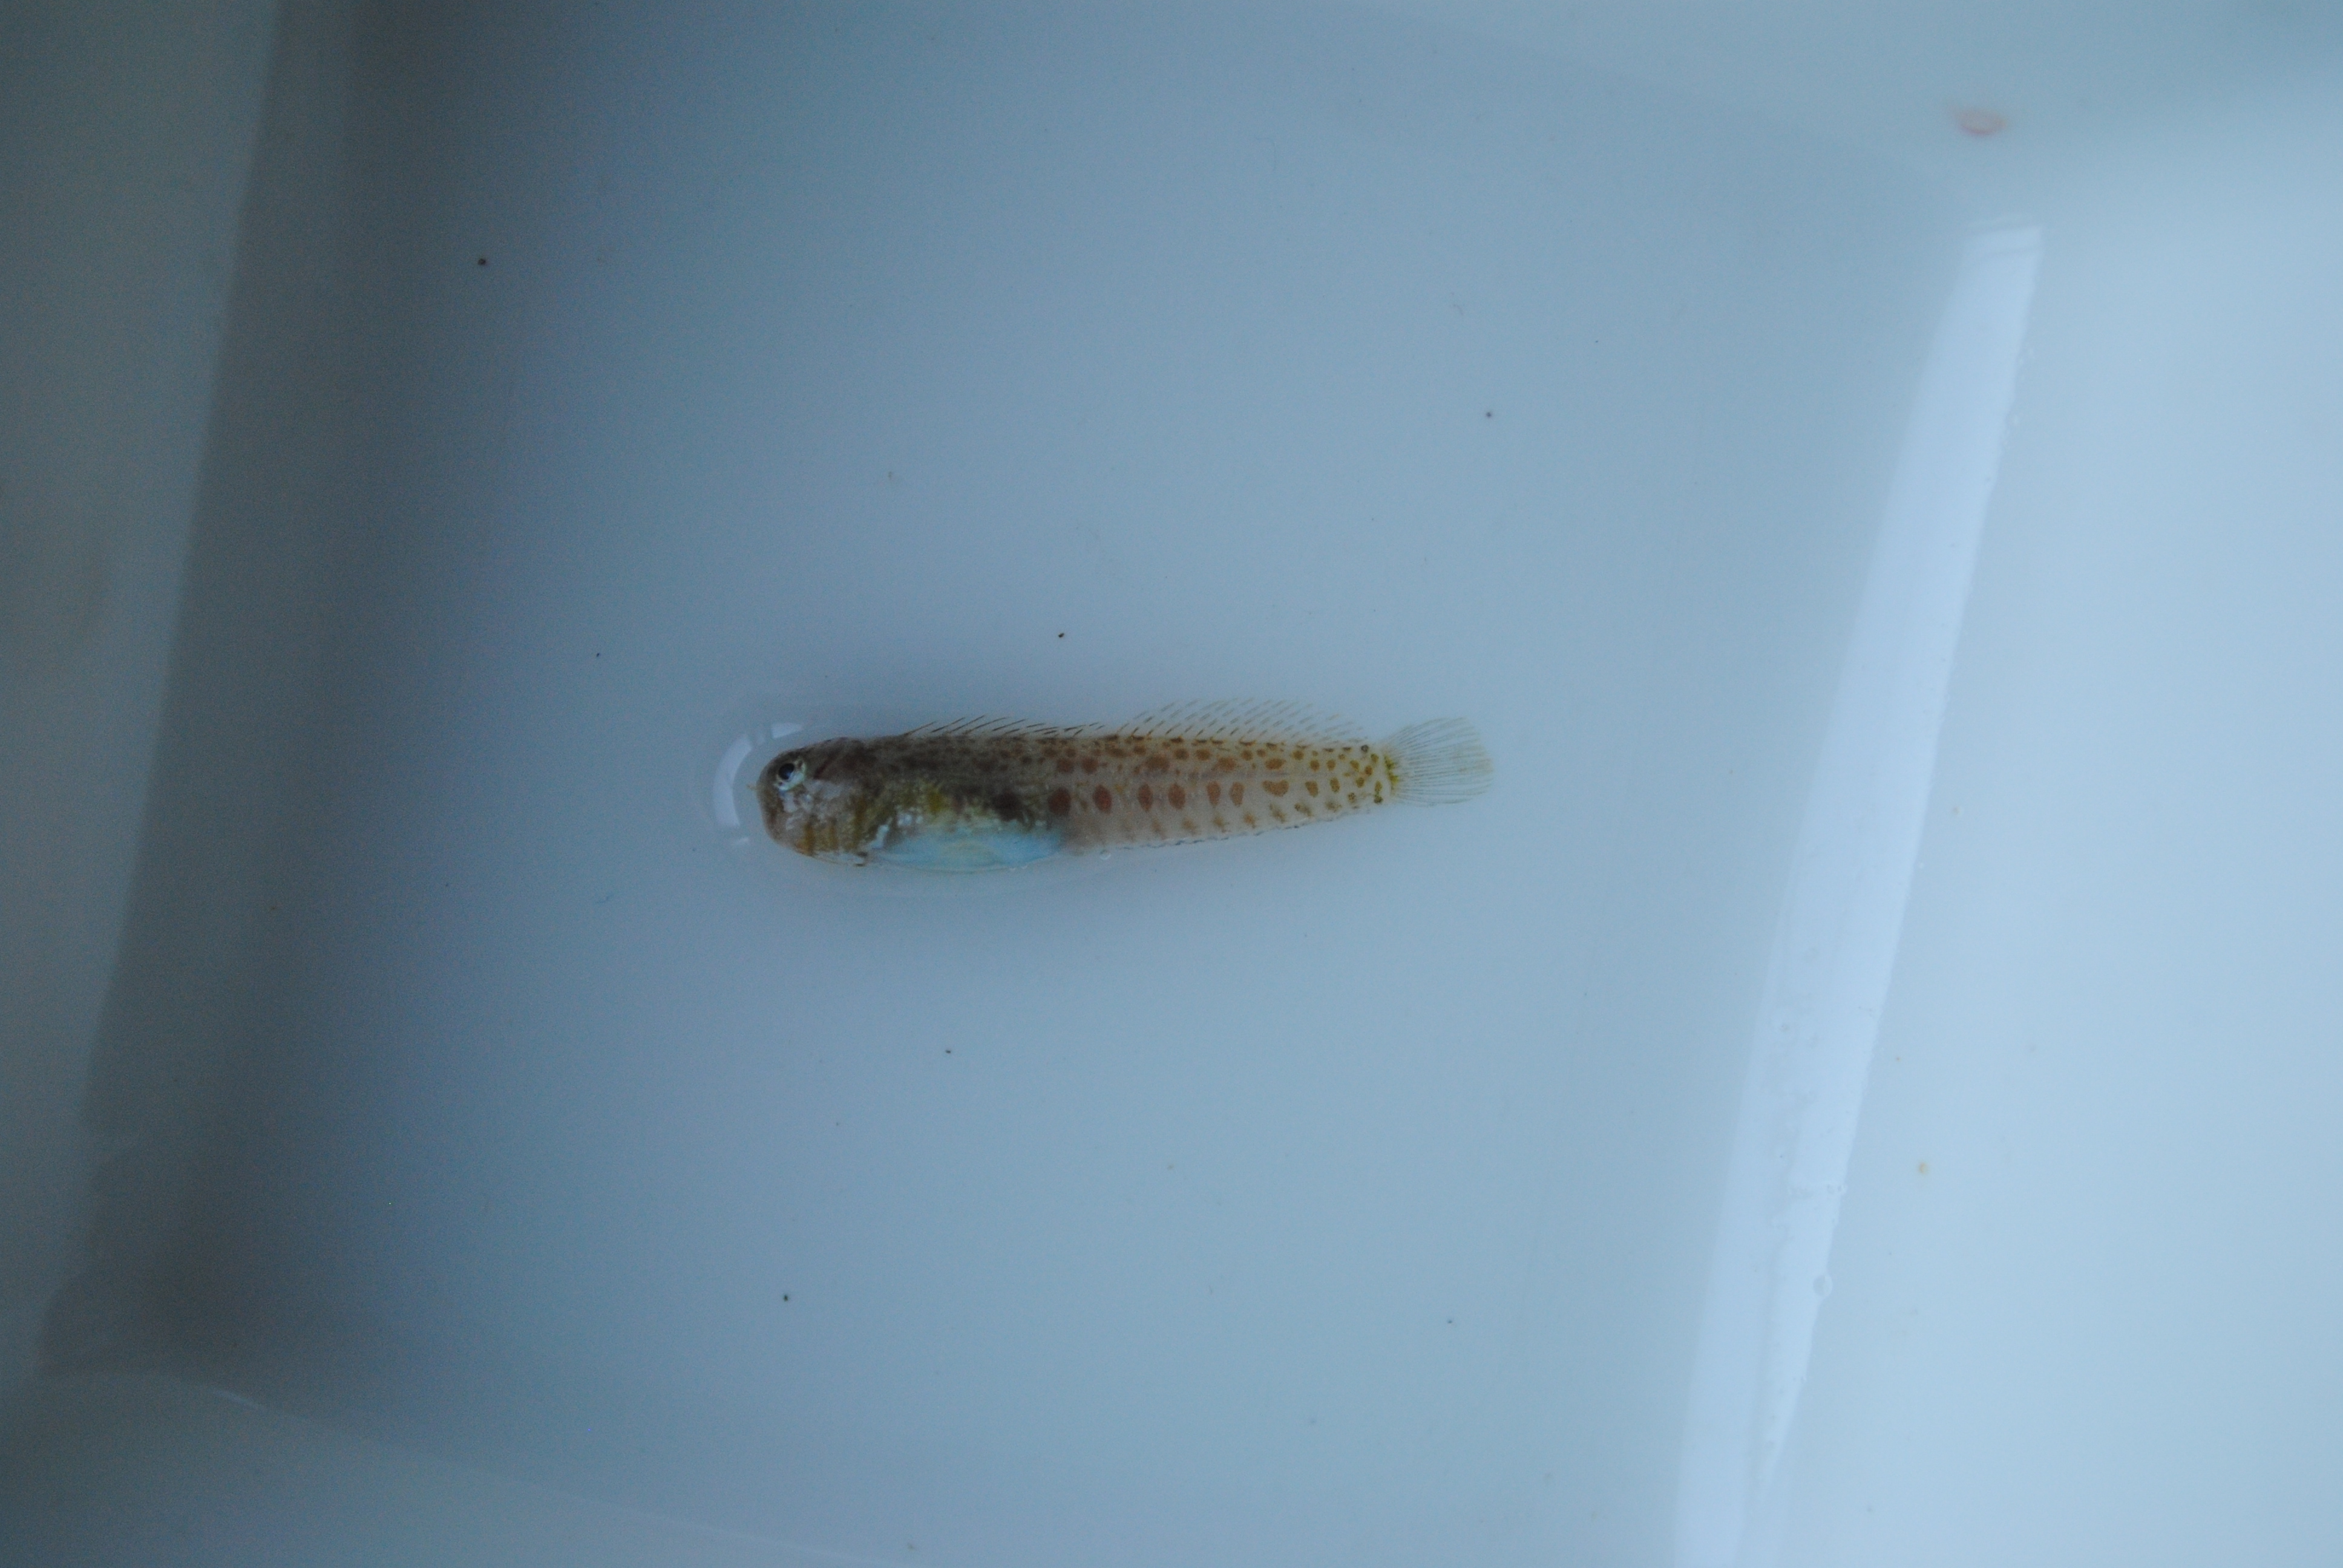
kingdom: Animalia
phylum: Chordata
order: Perciformes
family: Blenniidae
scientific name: Blenniidae
